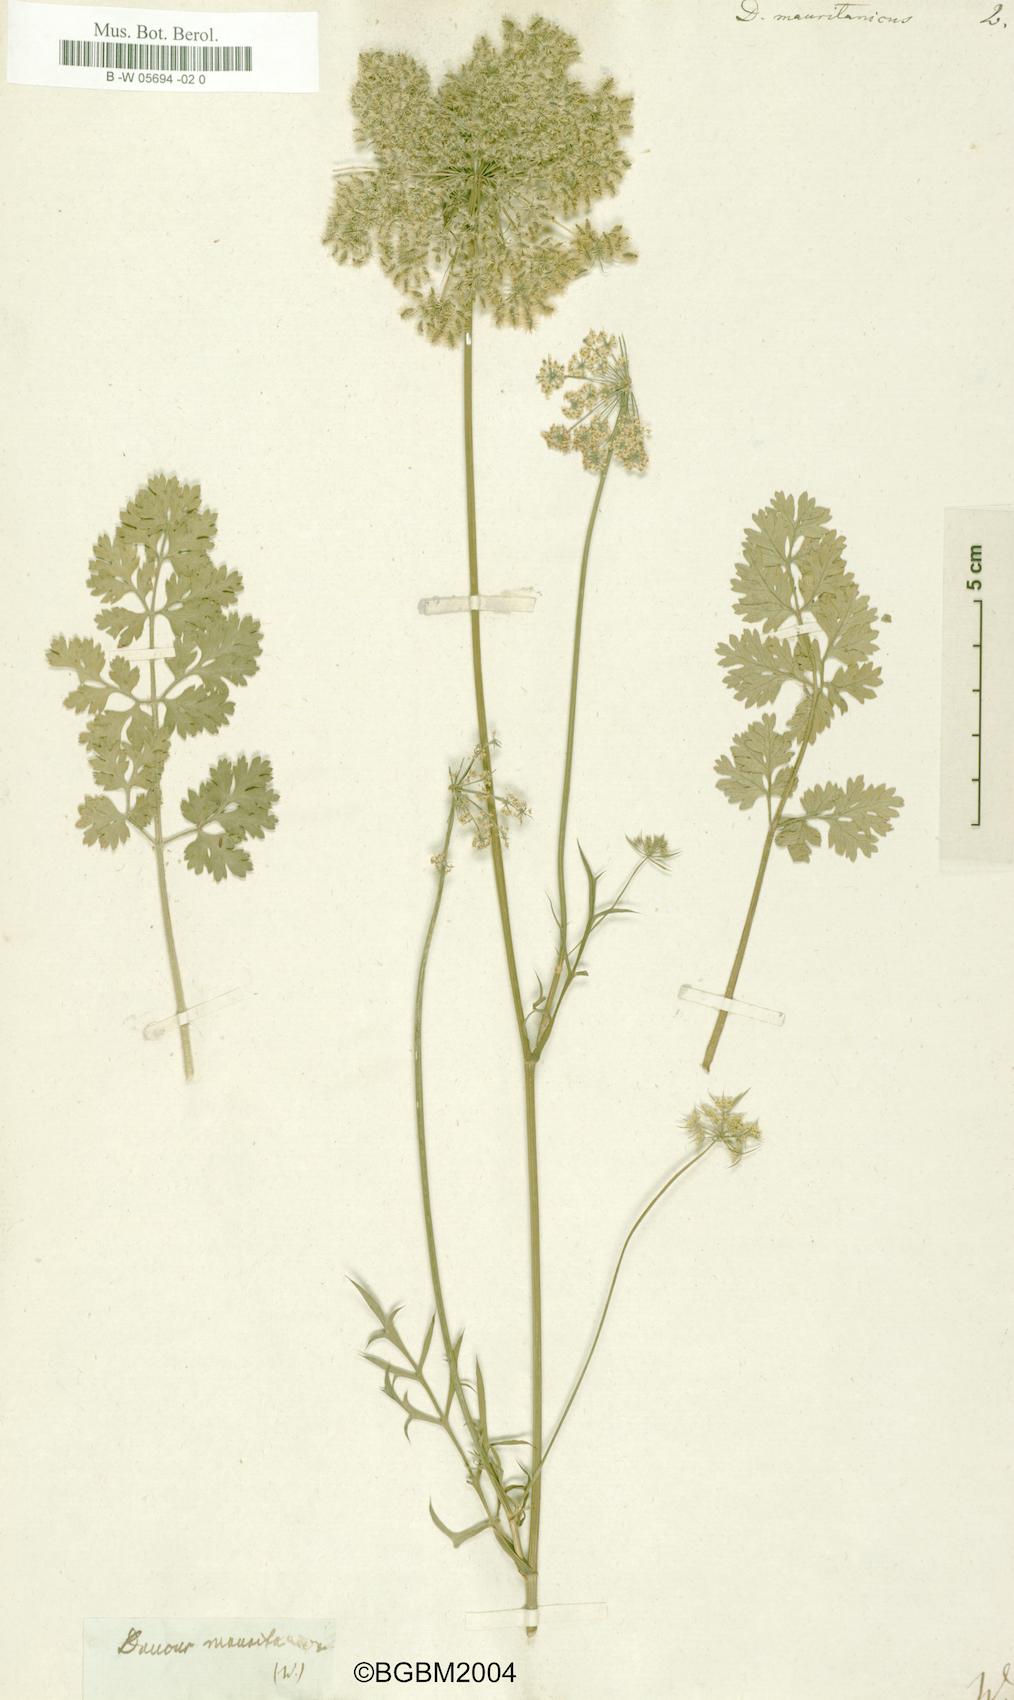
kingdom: Plantae
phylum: Tracheophyta
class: Magnoliopsida
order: Apiales
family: Apiaceae
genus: Daucus
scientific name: Daucus carota
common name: Wild carrot
